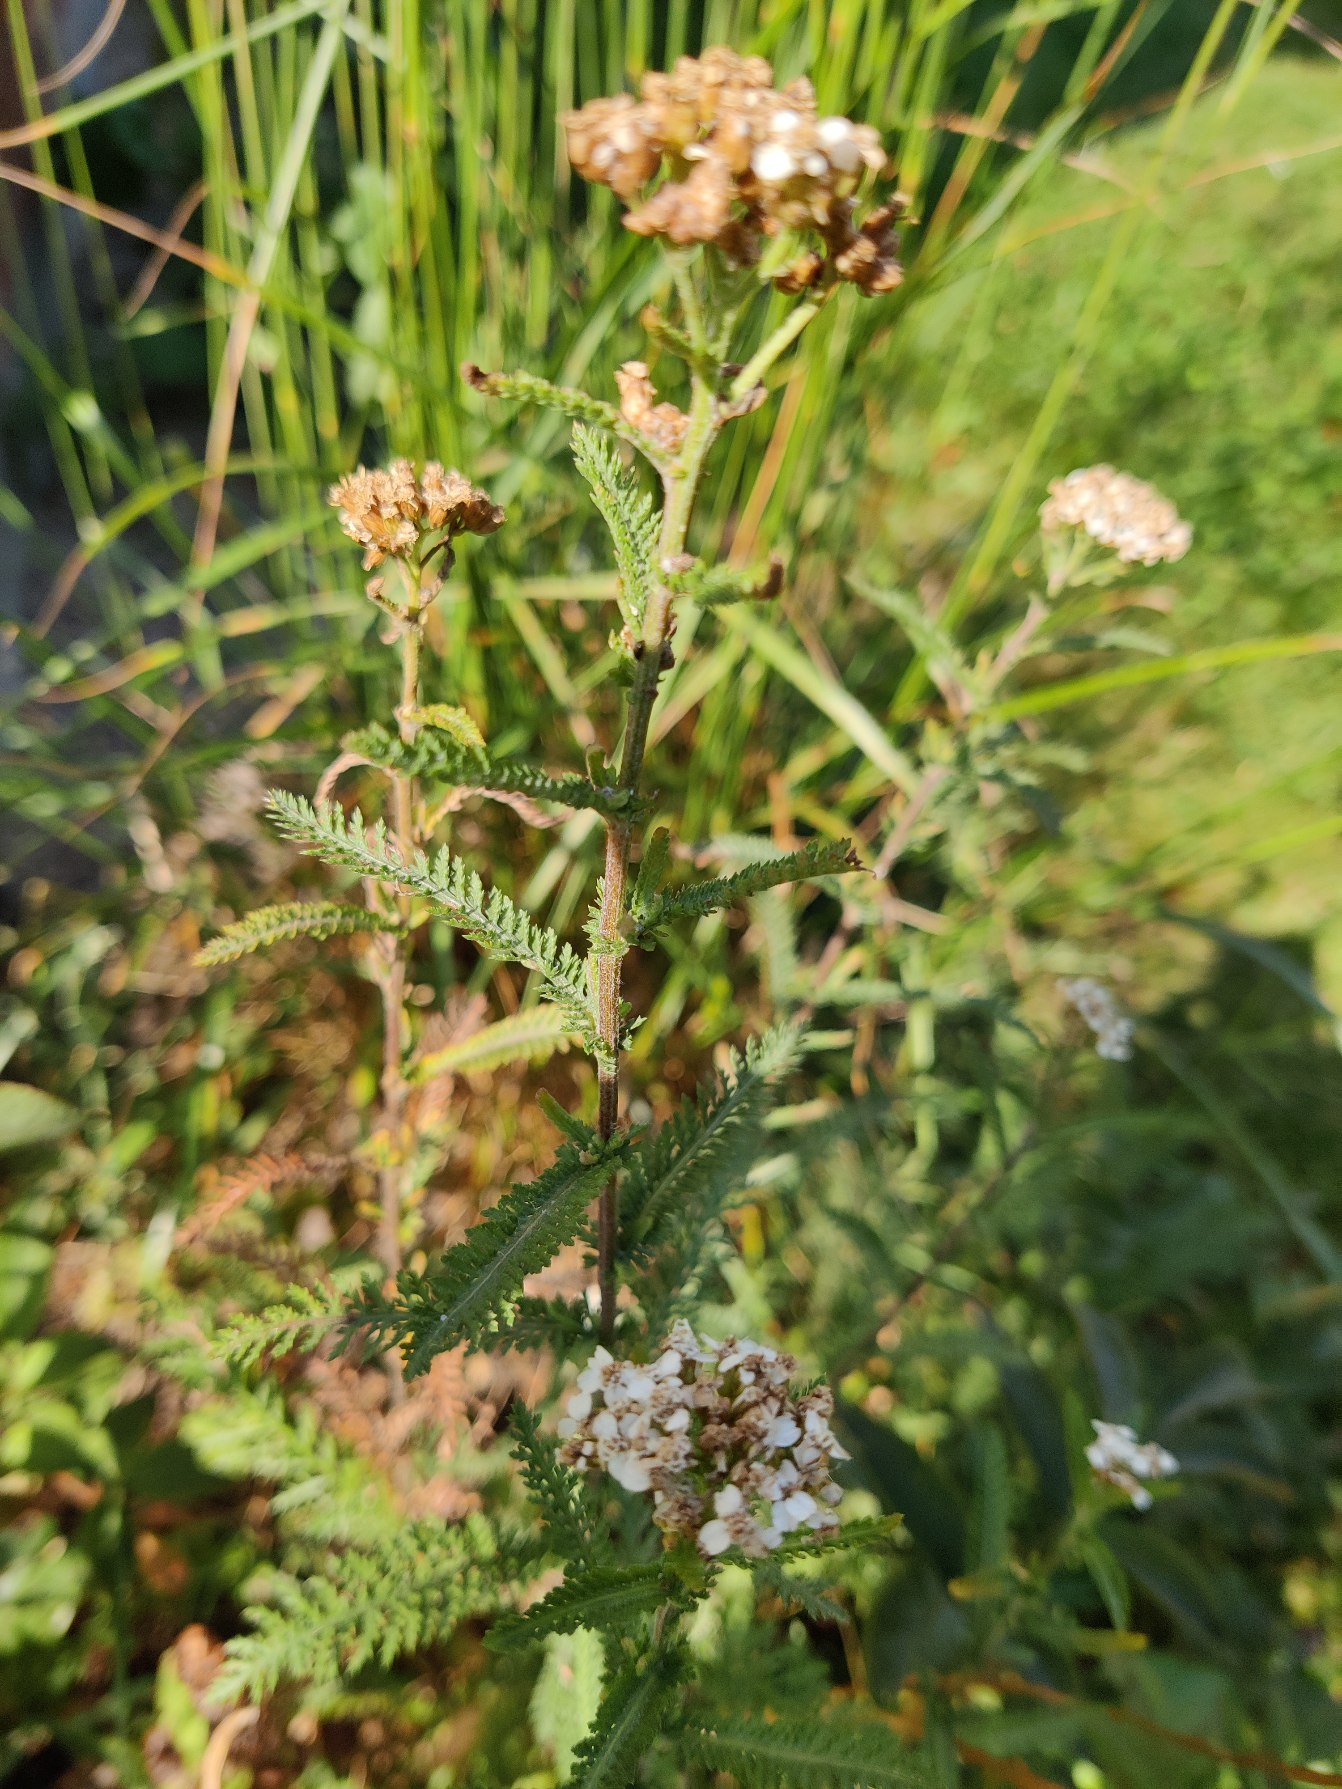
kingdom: Plantae
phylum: Tracheophyta
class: Magnoliopsida
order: Asterales
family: Asteraceae
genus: Achillea
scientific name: Achillea millefolium
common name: Almindelig røllike
